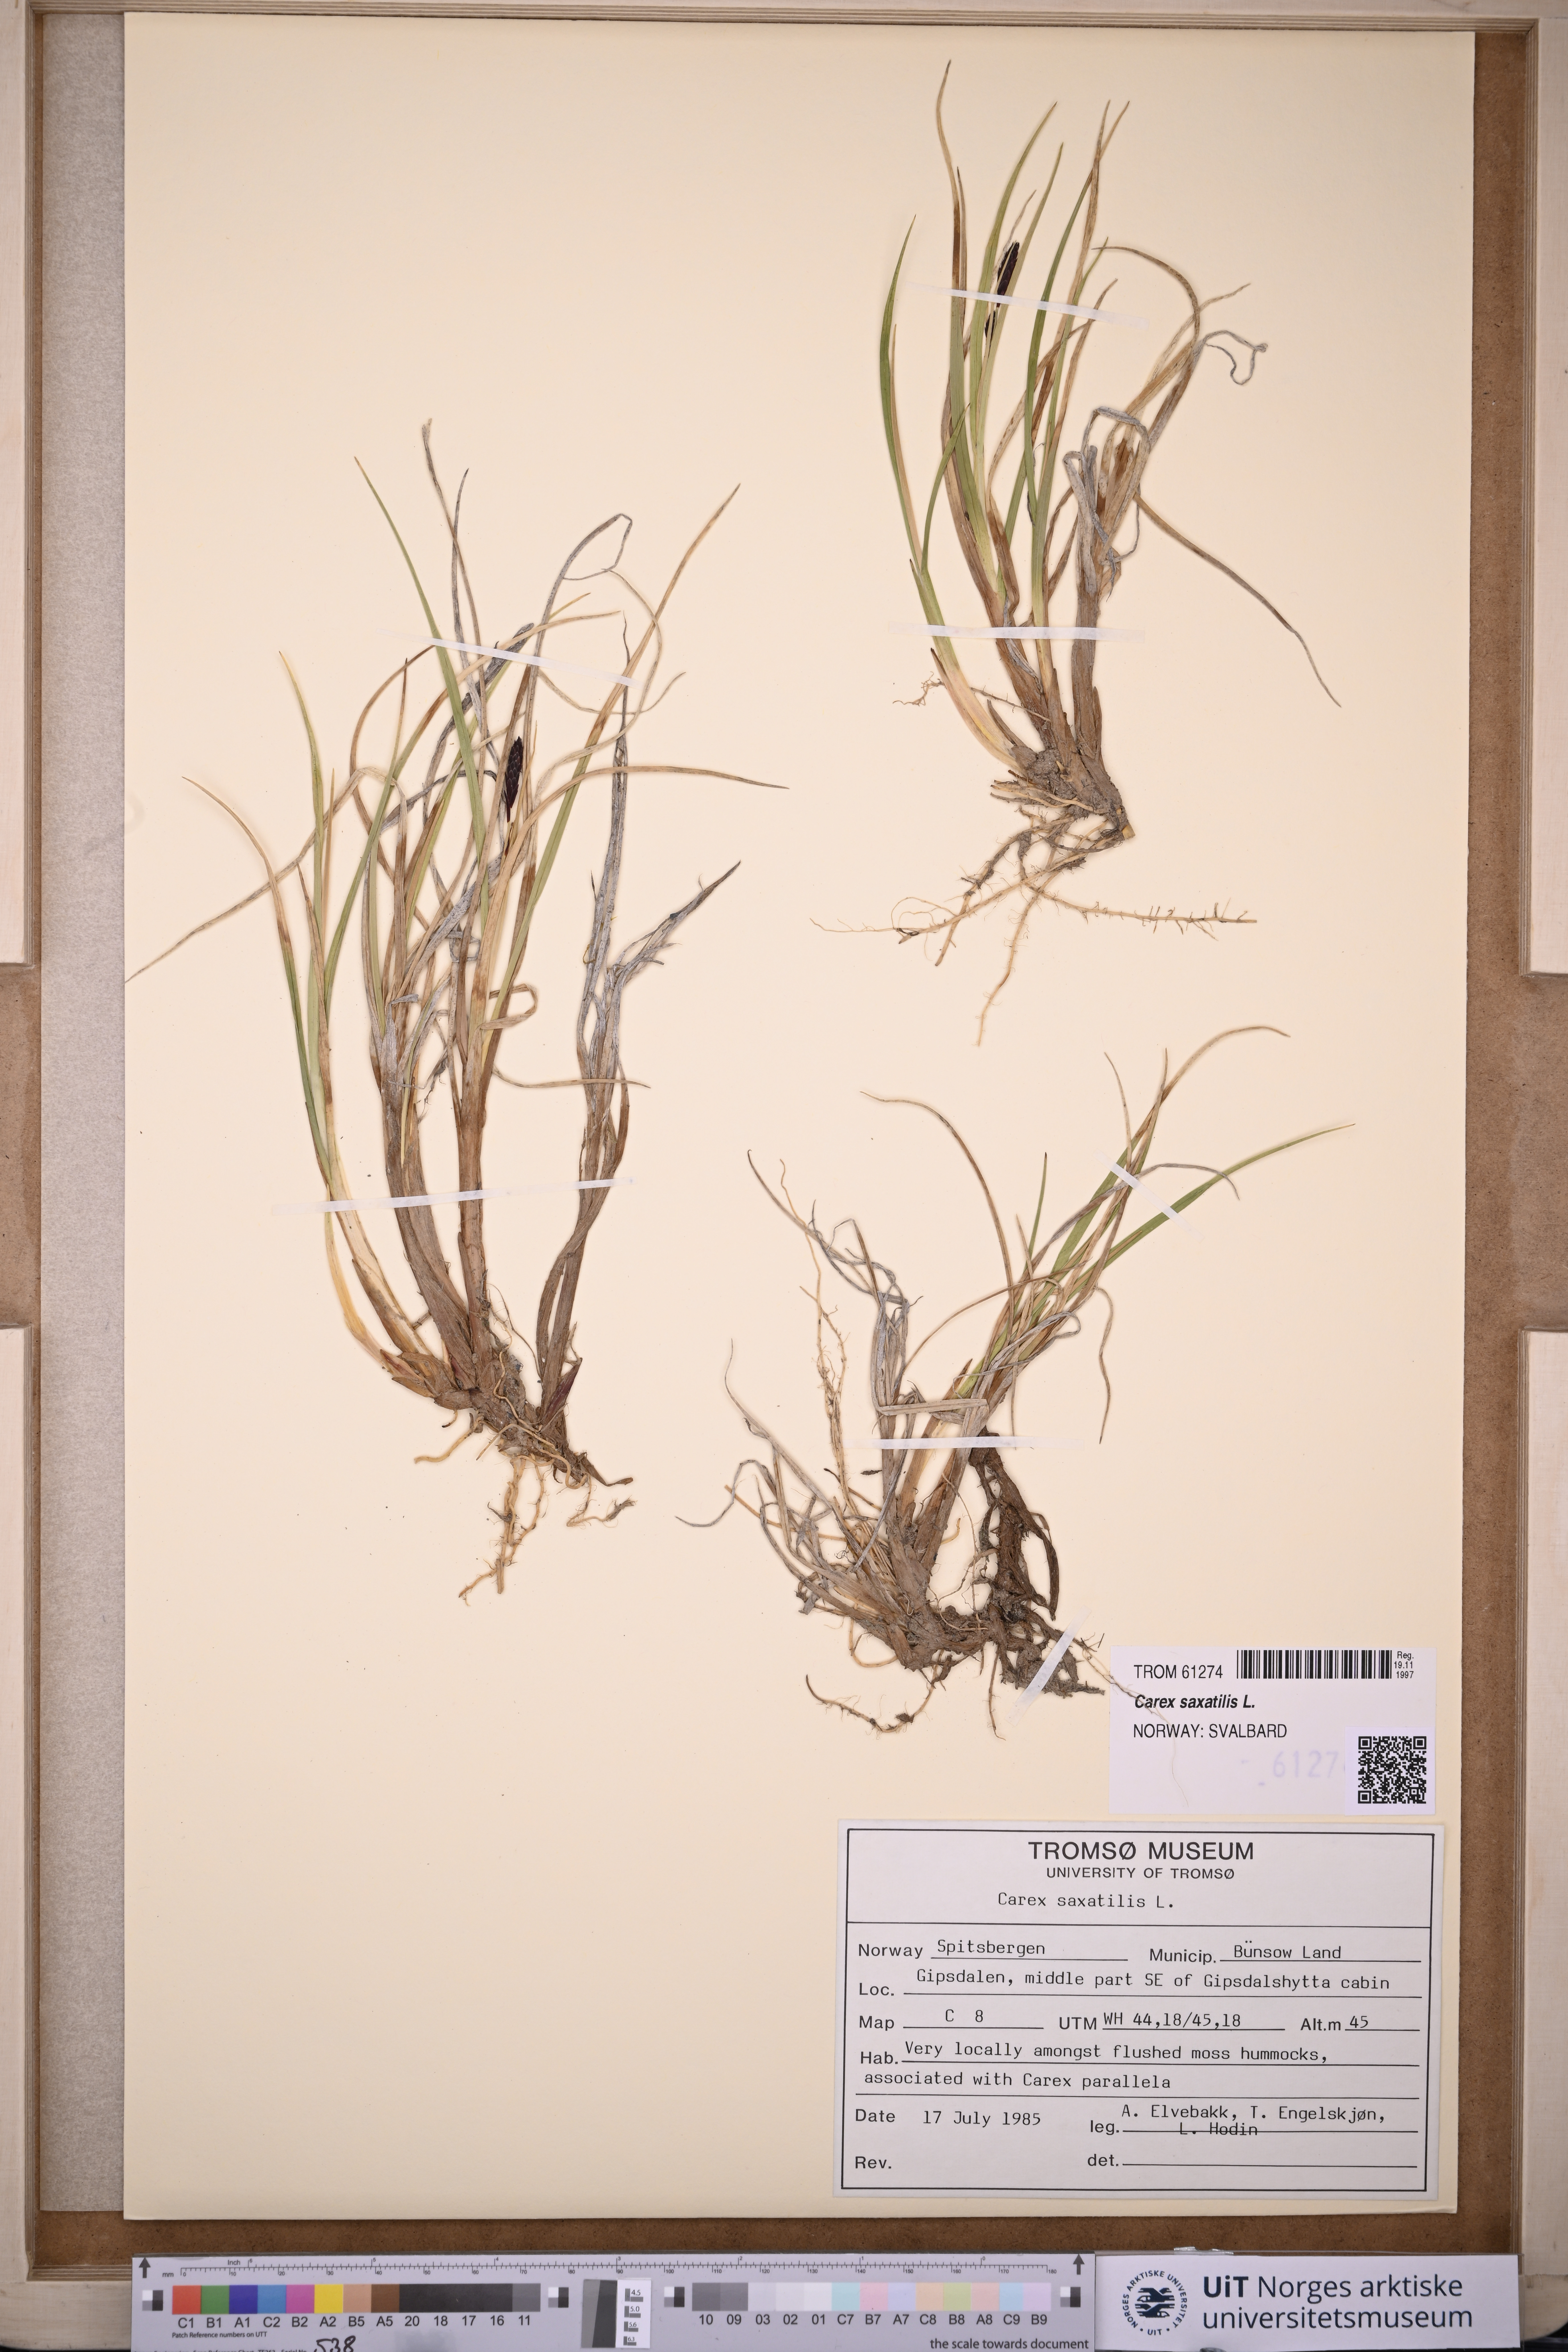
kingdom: Plantae
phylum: Tracheophyta
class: Liliopsida
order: Poales
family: Cyperaceae
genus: Carex
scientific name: Carex saxatilis
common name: Russet sedge
